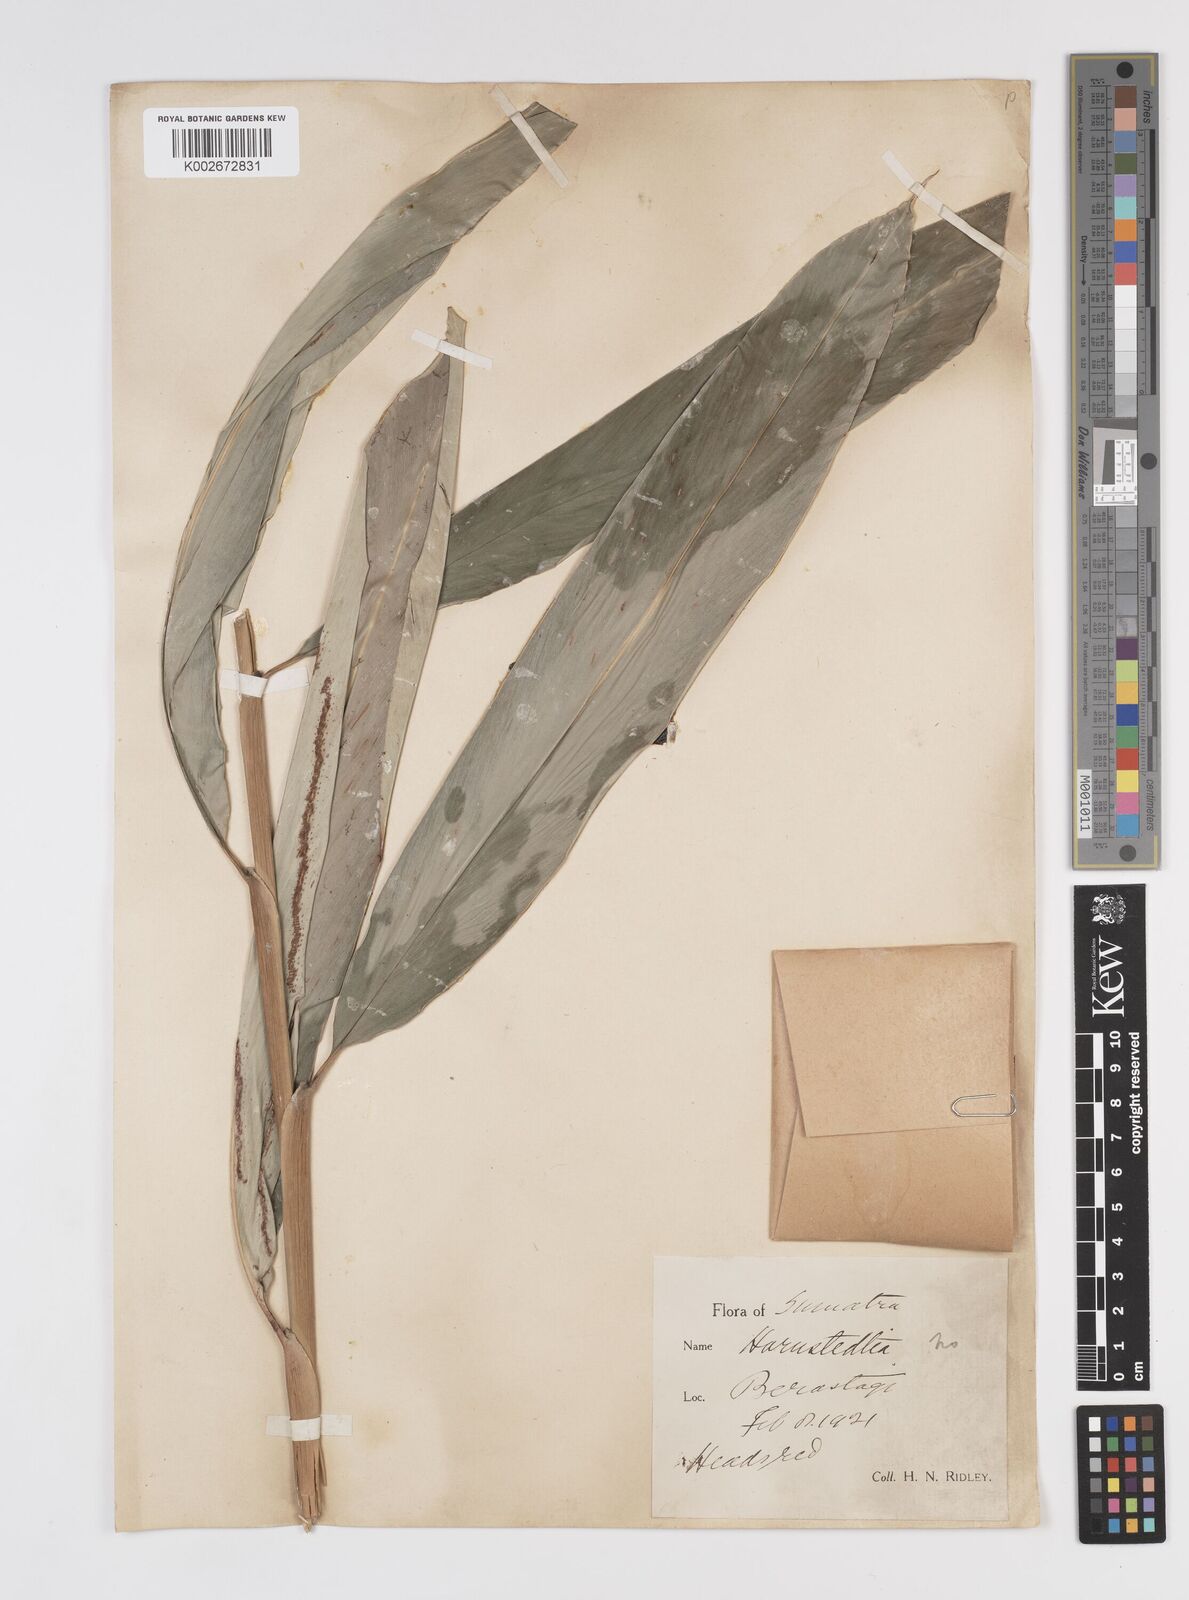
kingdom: Plantae
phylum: Tracheophyta
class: Liliopsida
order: Zingiberales
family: Zingiberaceae
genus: Etlingera
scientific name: Etlingera
